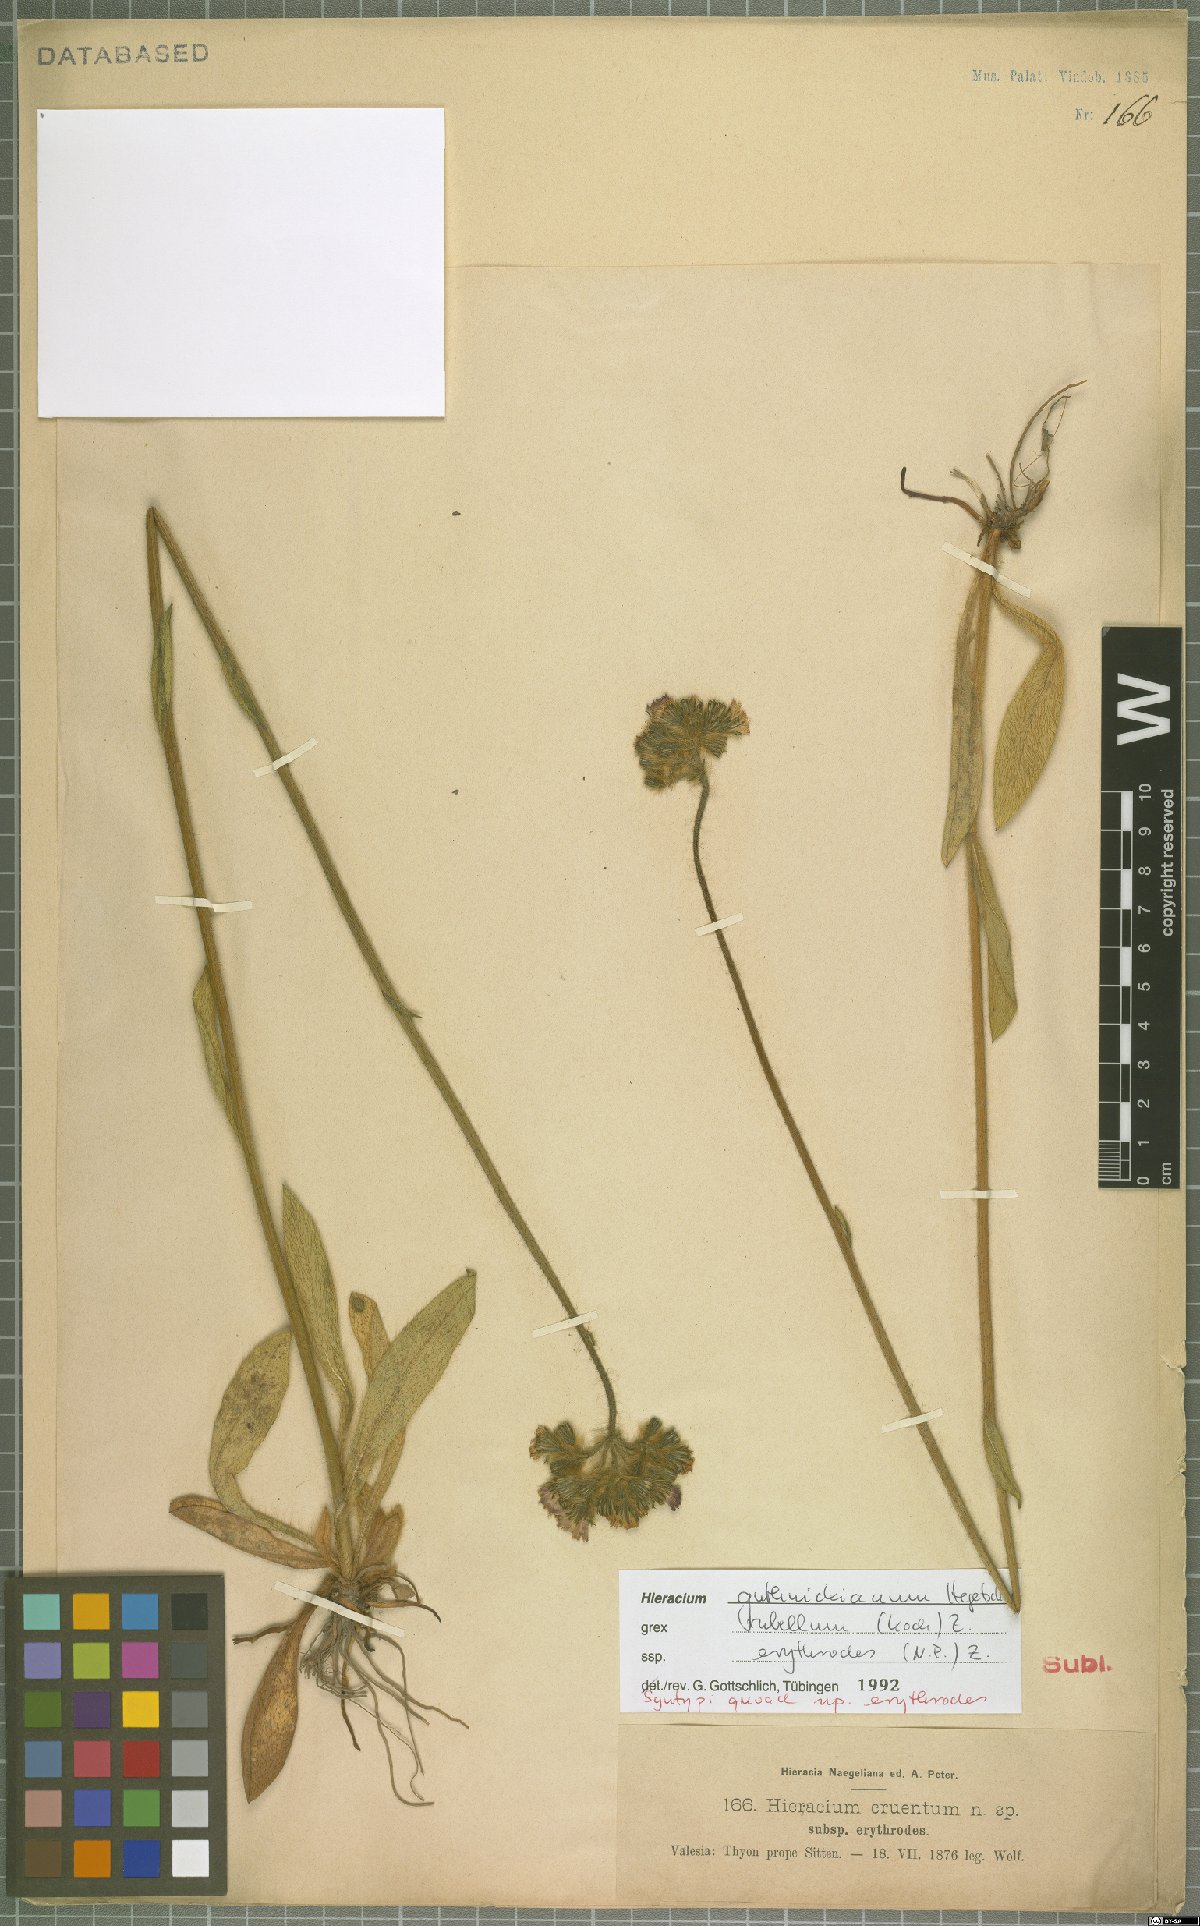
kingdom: Plantae
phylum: Tracheophyta
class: Magnoliopsida
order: Asterales
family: Asteraceae
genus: Pilosella
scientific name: Pilosella guthnikiana
